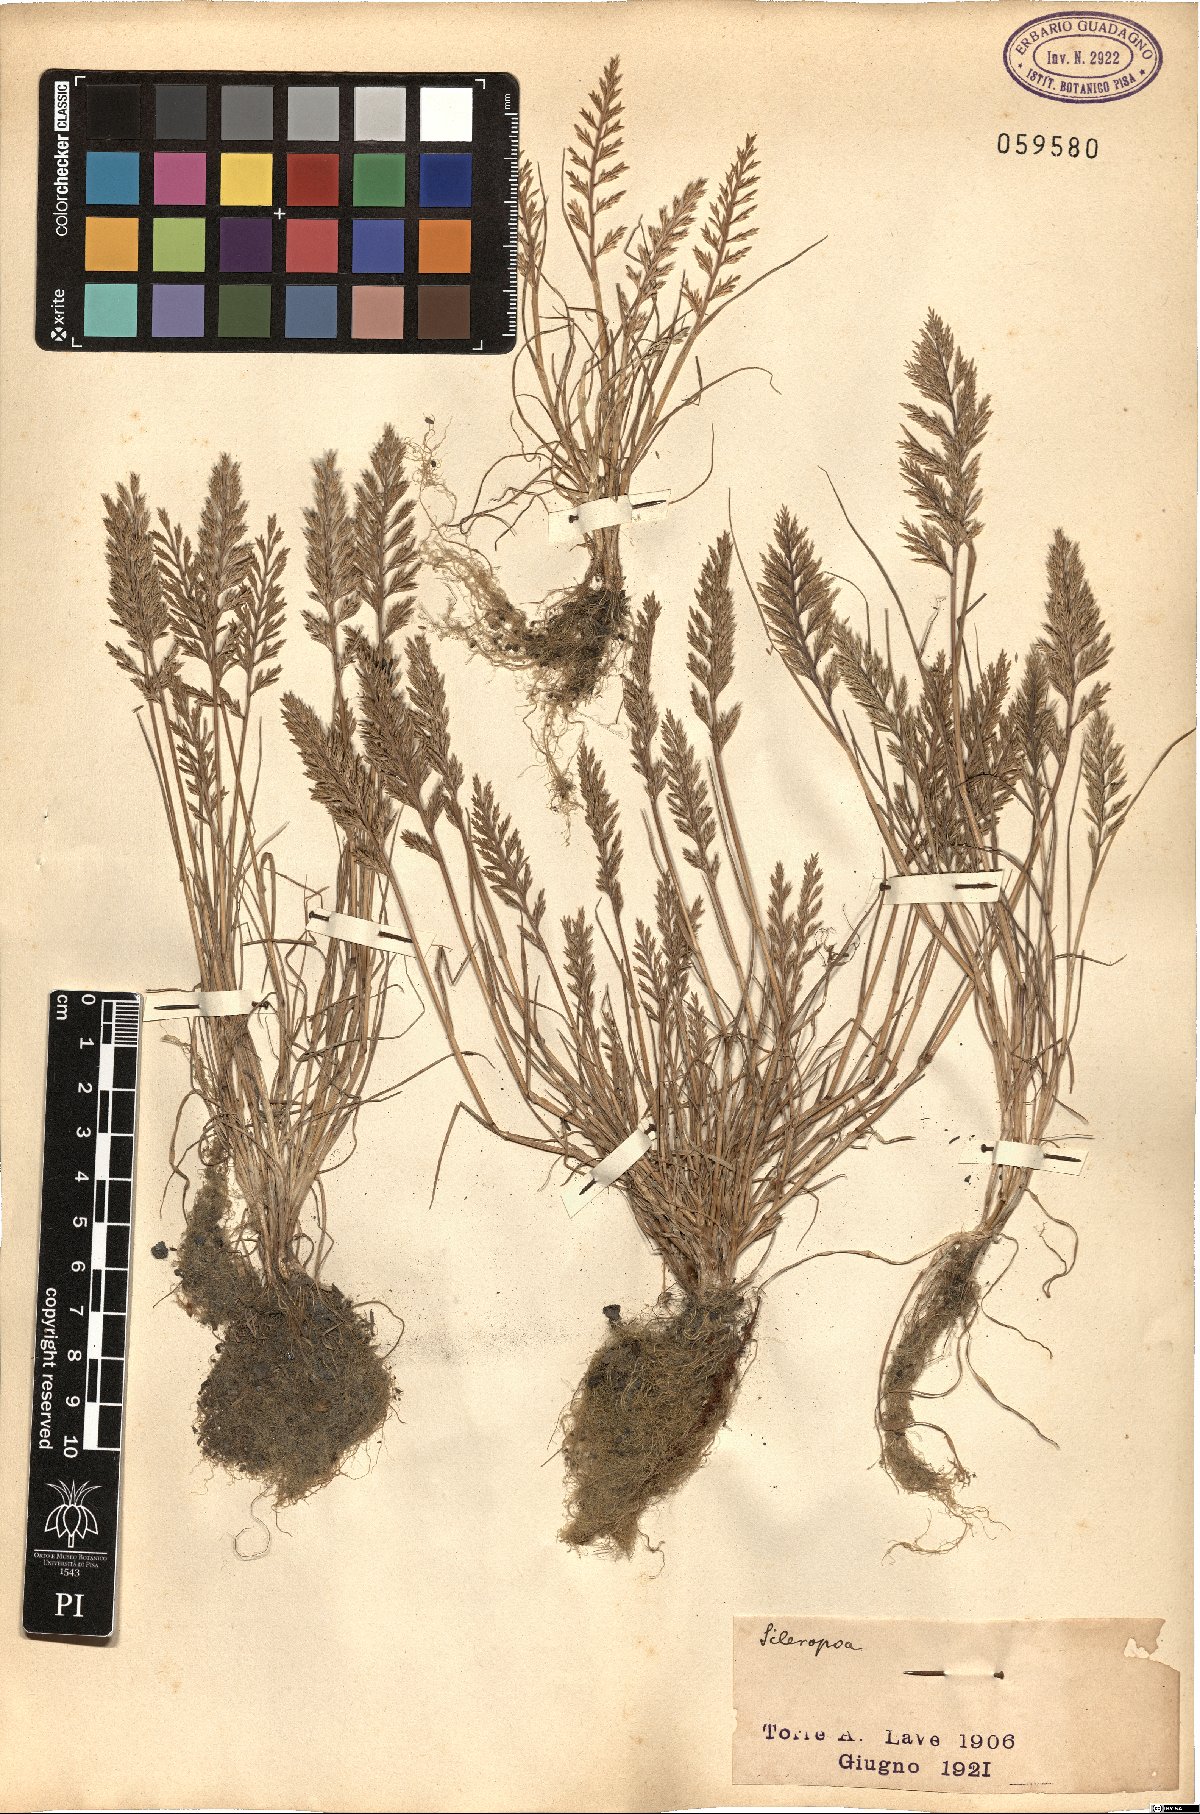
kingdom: Plantae
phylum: Tracheophyta
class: Liliopsida
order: Poales
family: Poaceae
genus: Catapodium
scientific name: Catapodium
